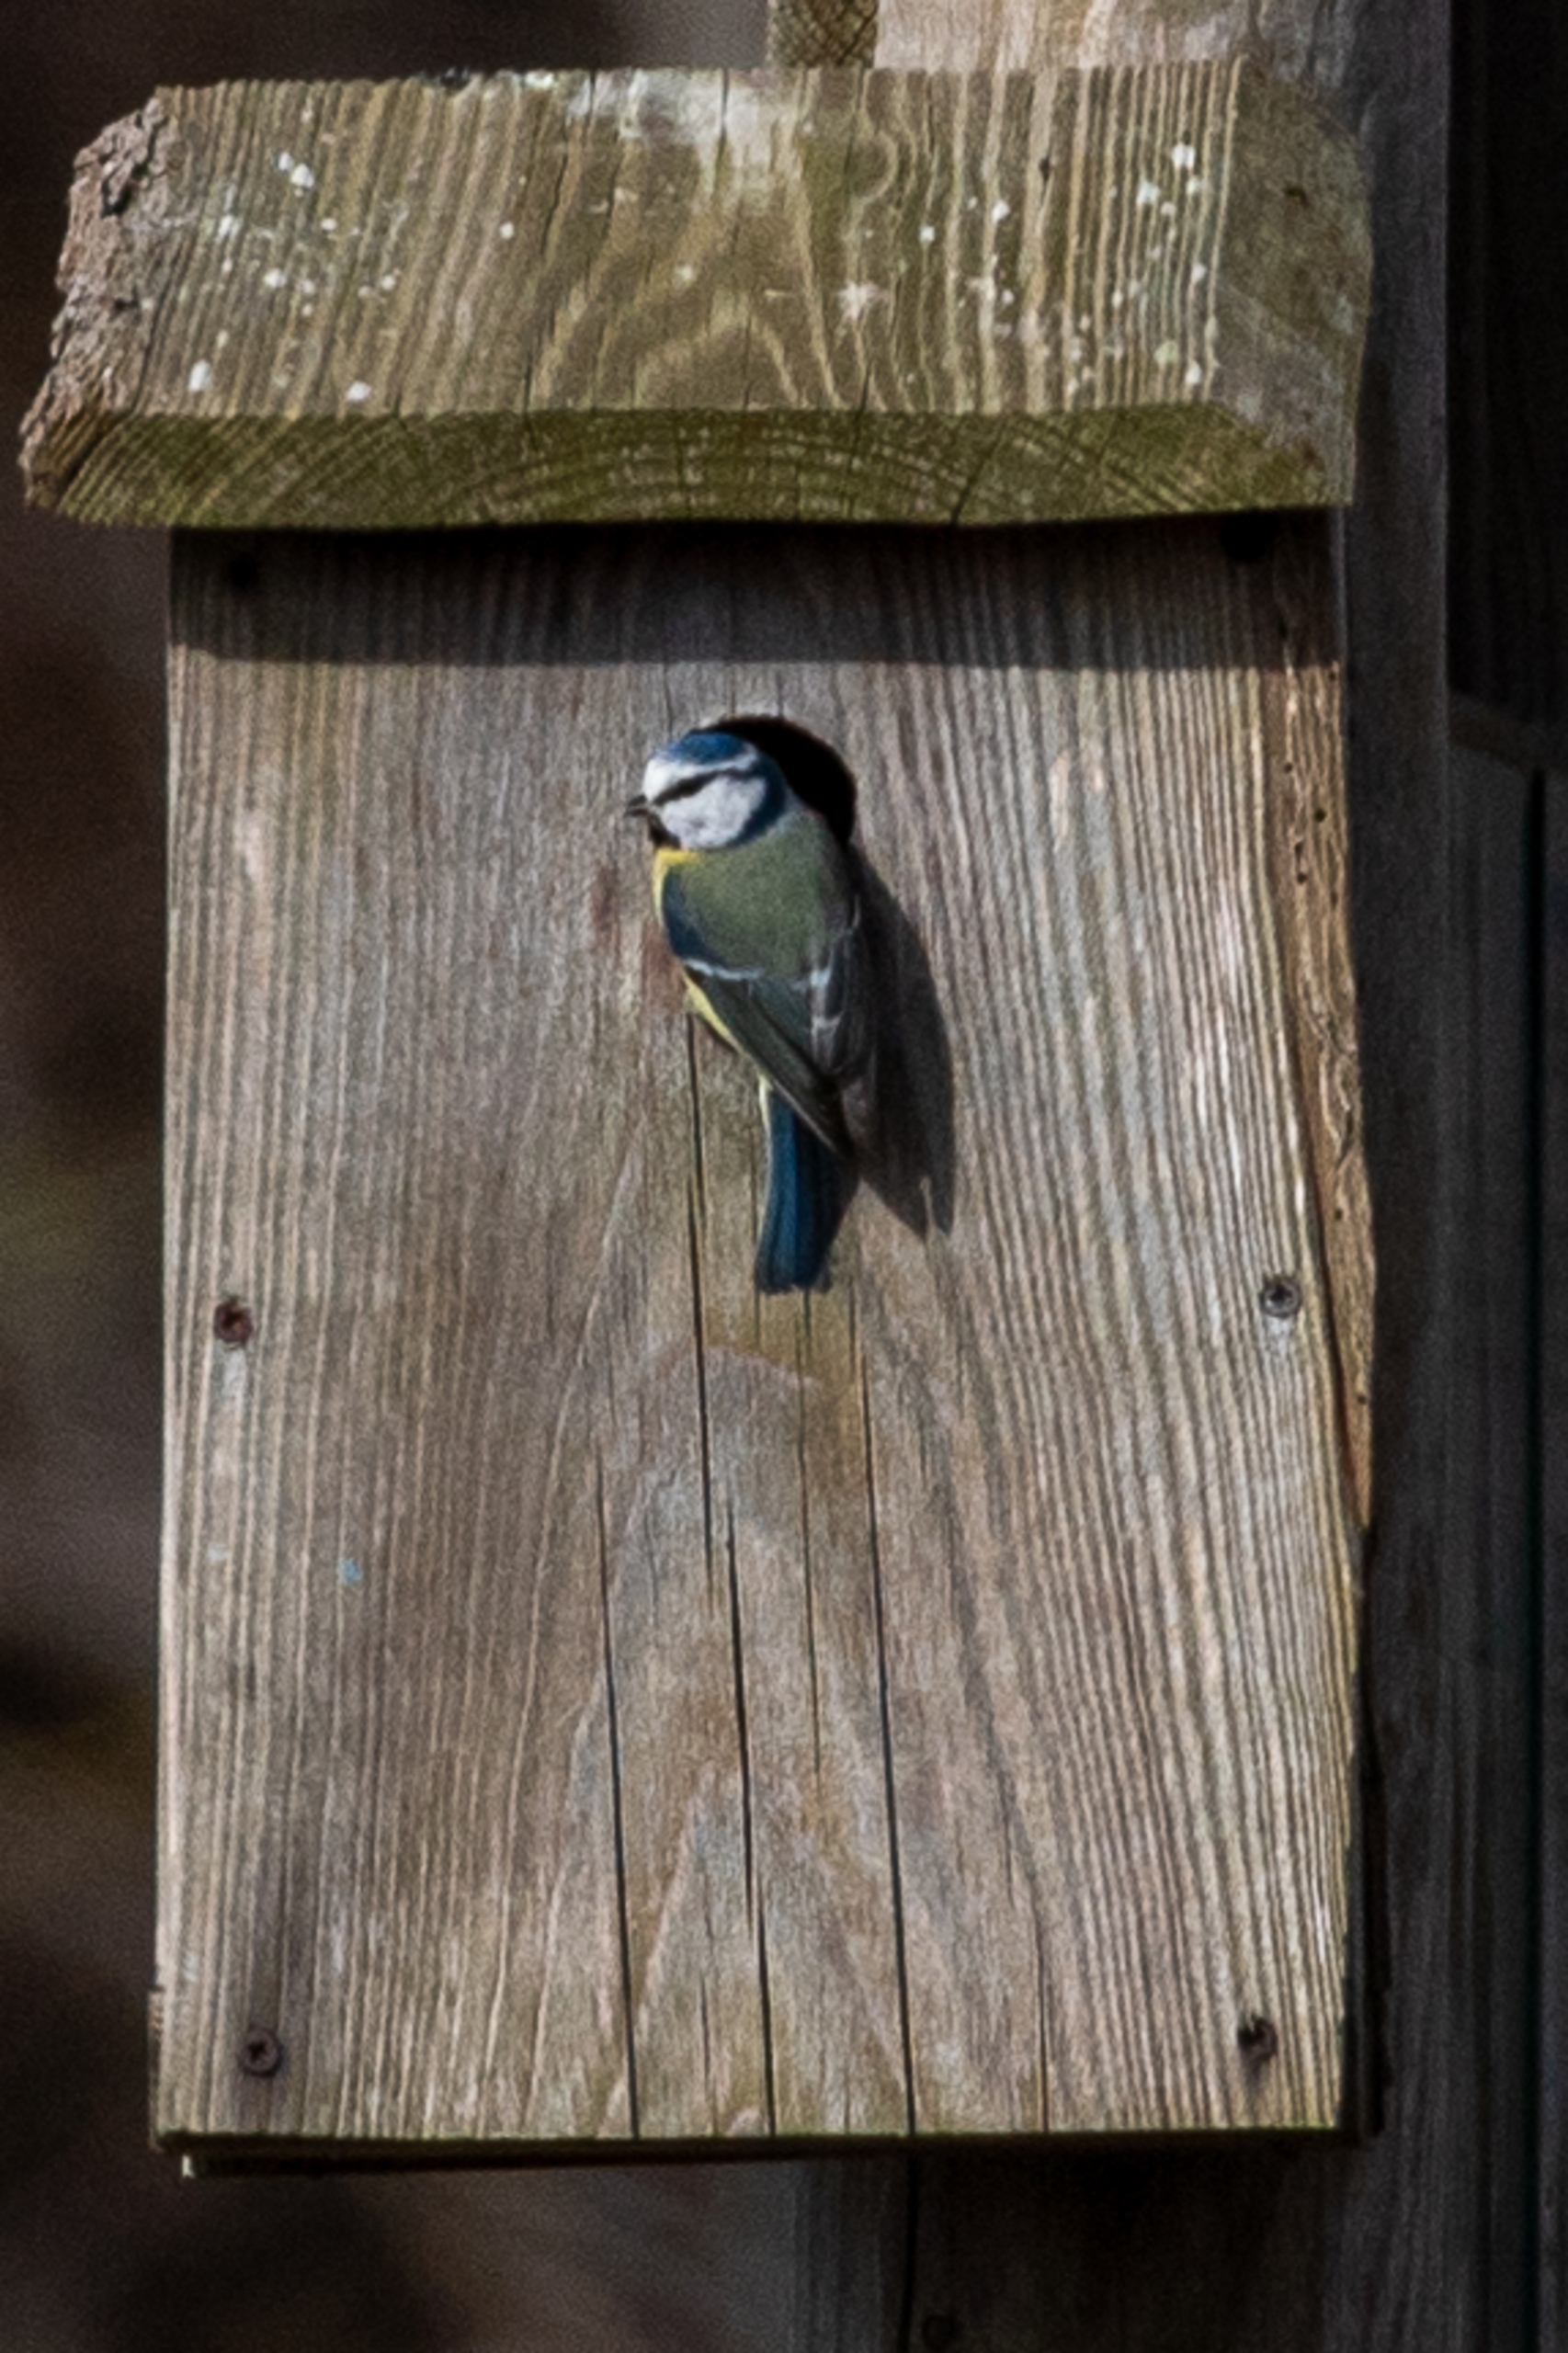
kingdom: Animalia
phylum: Chordata
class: Aves
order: Passeriformes
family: Paridae
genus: Cyanistes
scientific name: Cyanistes caeruleus
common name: Blåmejse
